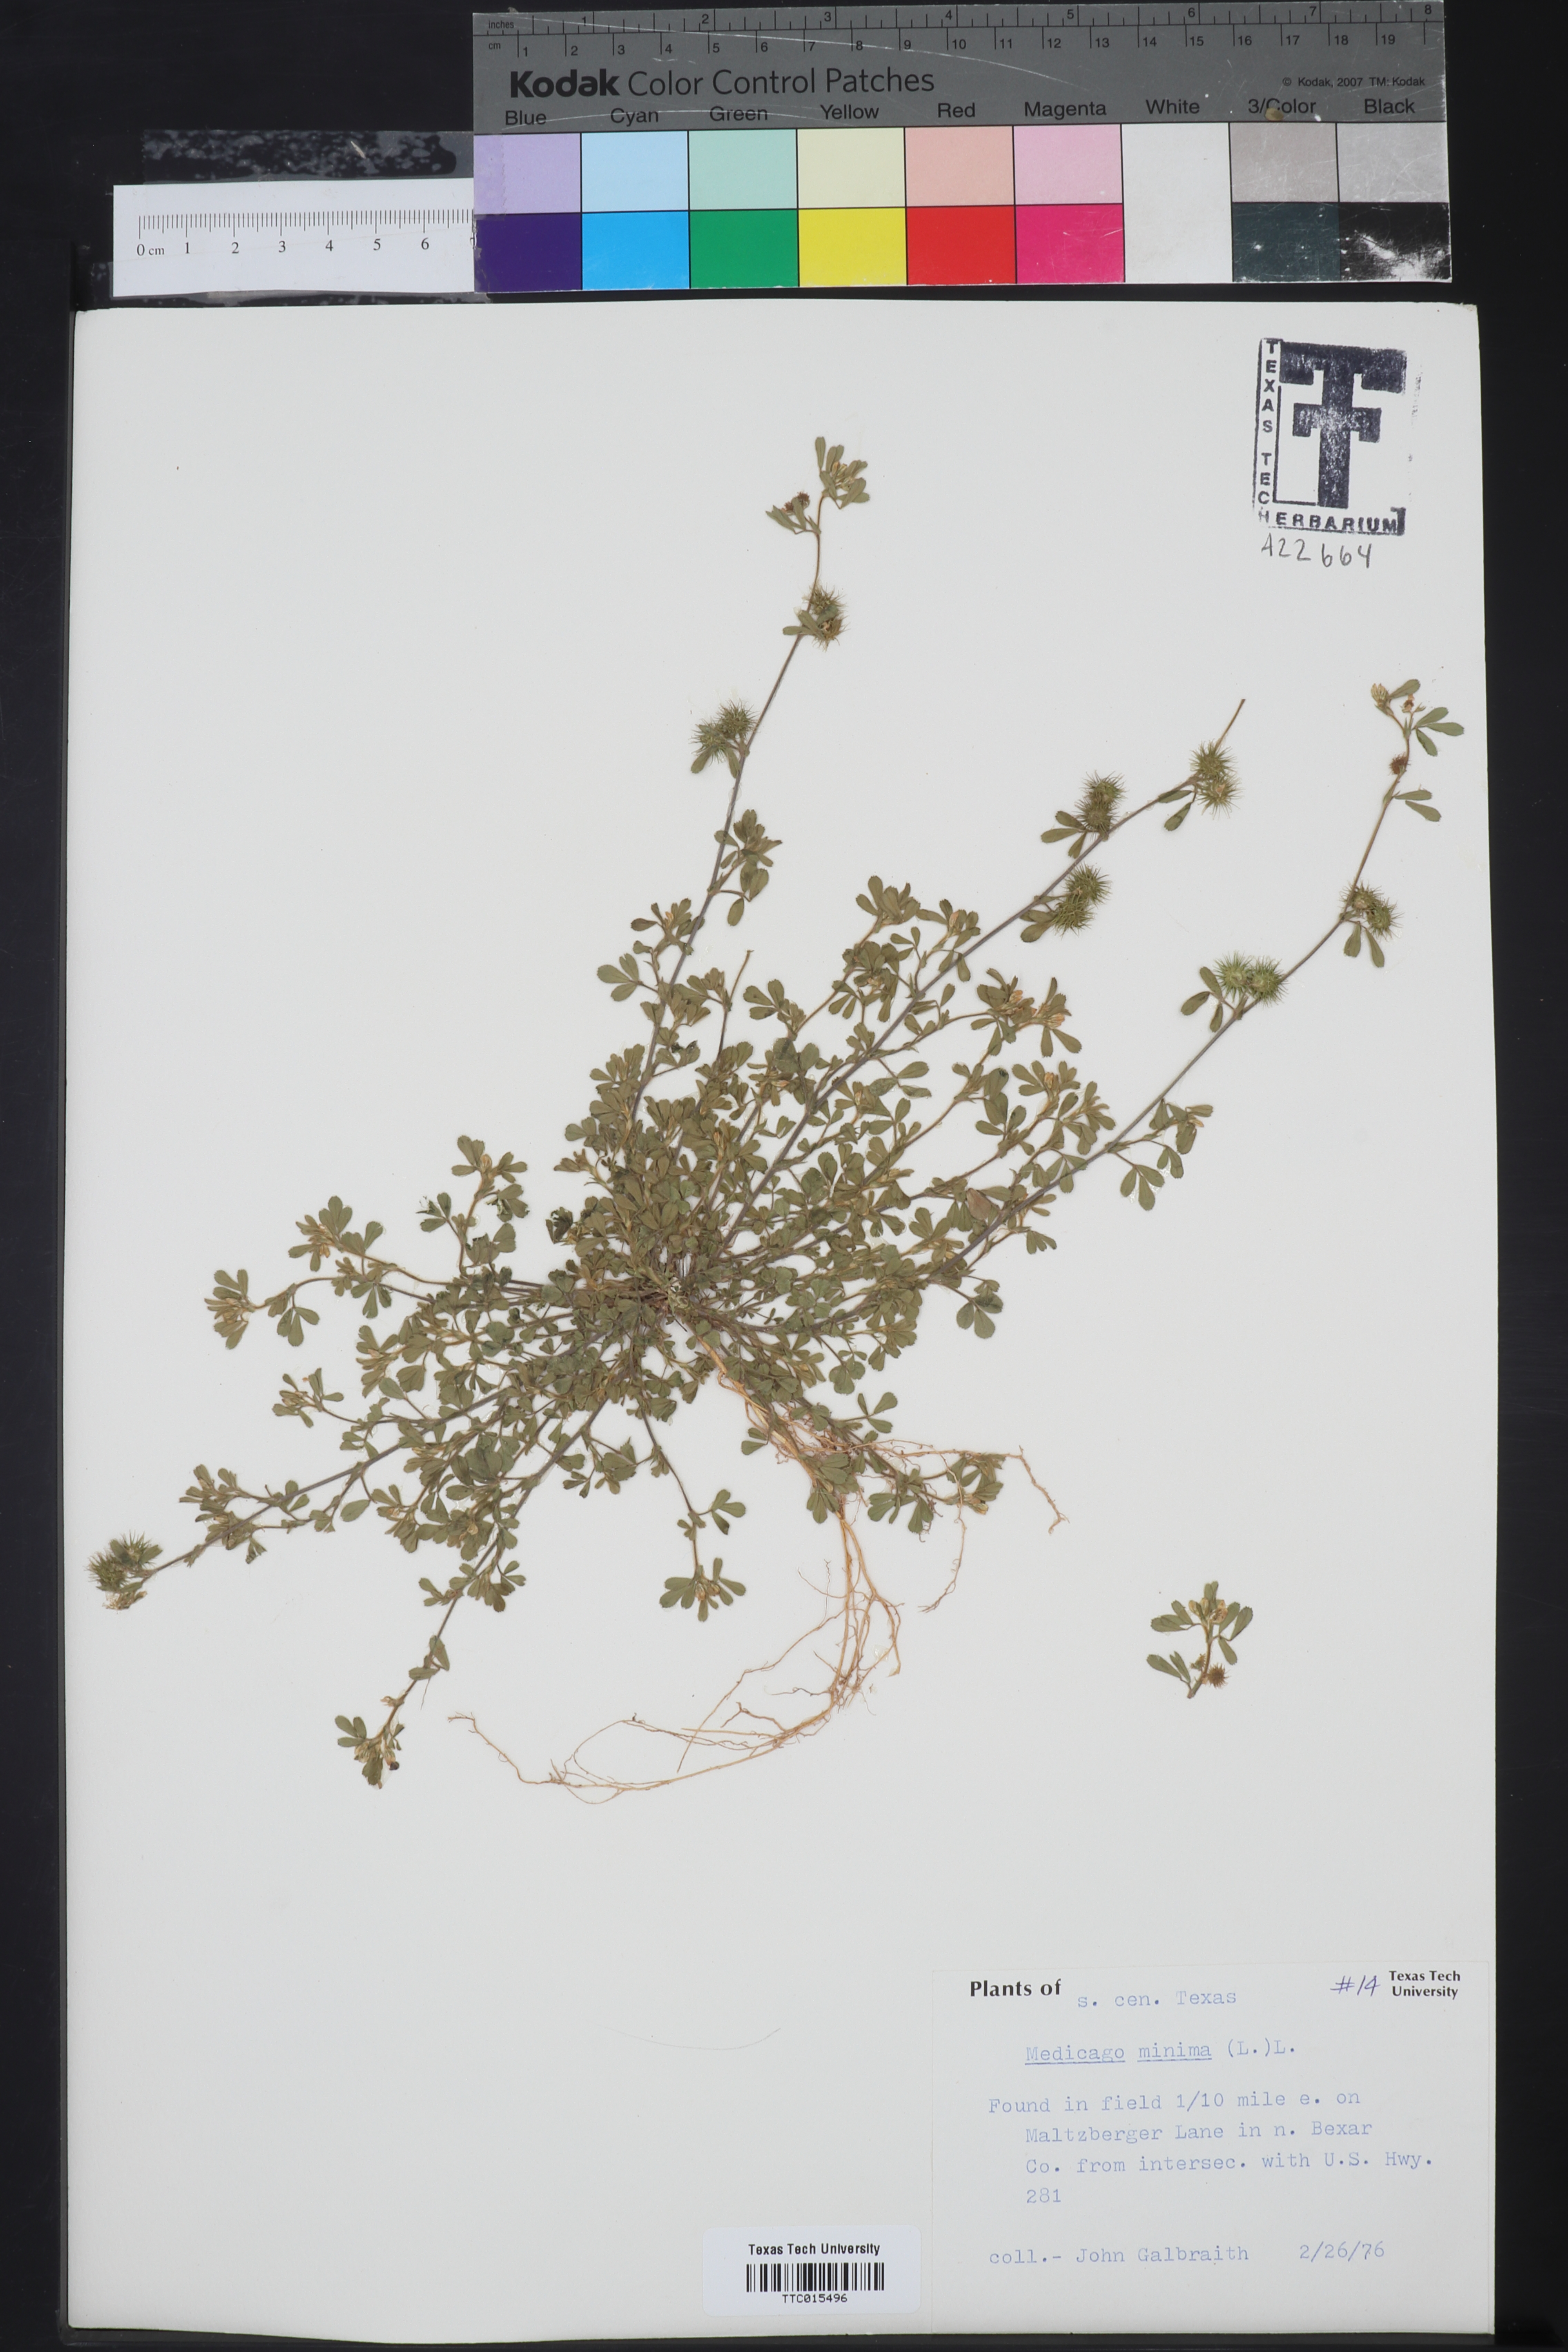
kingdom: Plantae
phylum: Tracheophyta
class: Magnoliopsida
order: Fabales
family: Fabaceae
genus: Medicago
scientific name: Medicago lupulina
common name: Black medick
